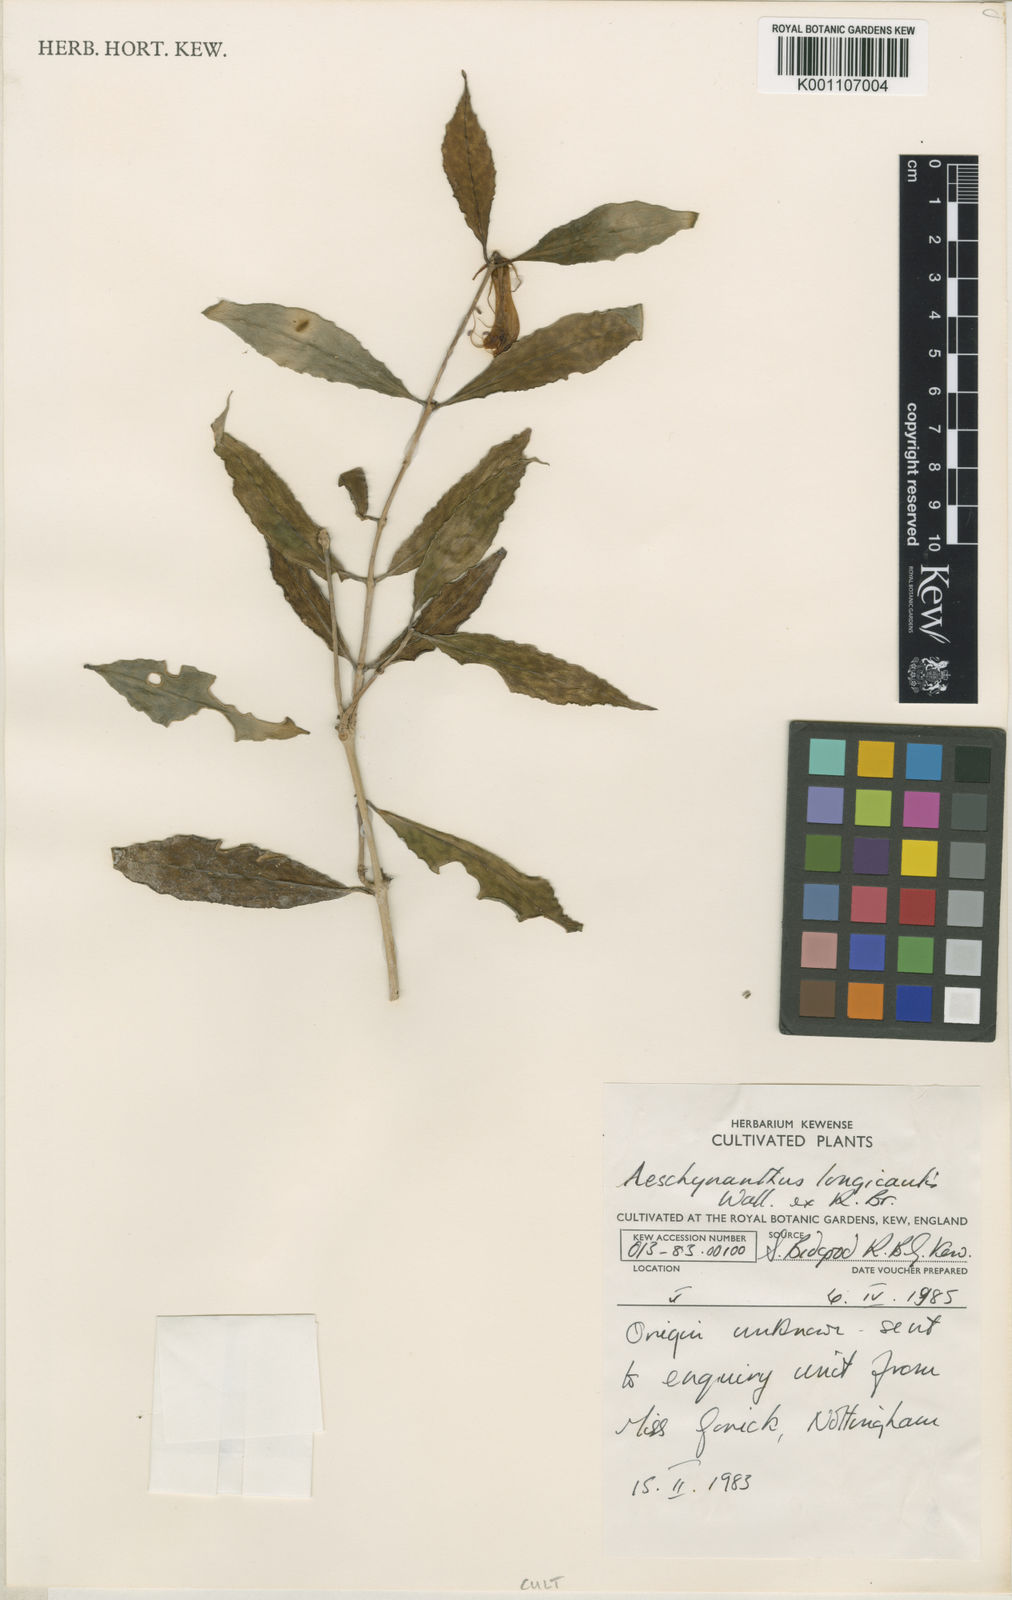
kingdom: Plantae
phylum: Tracheophyta
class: Magnoliopsida
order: Lamiales
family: Gesneriaceae
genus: Aeschynanthus
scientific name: Aeschynanthus longicaulis
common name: Zebra basketvine
